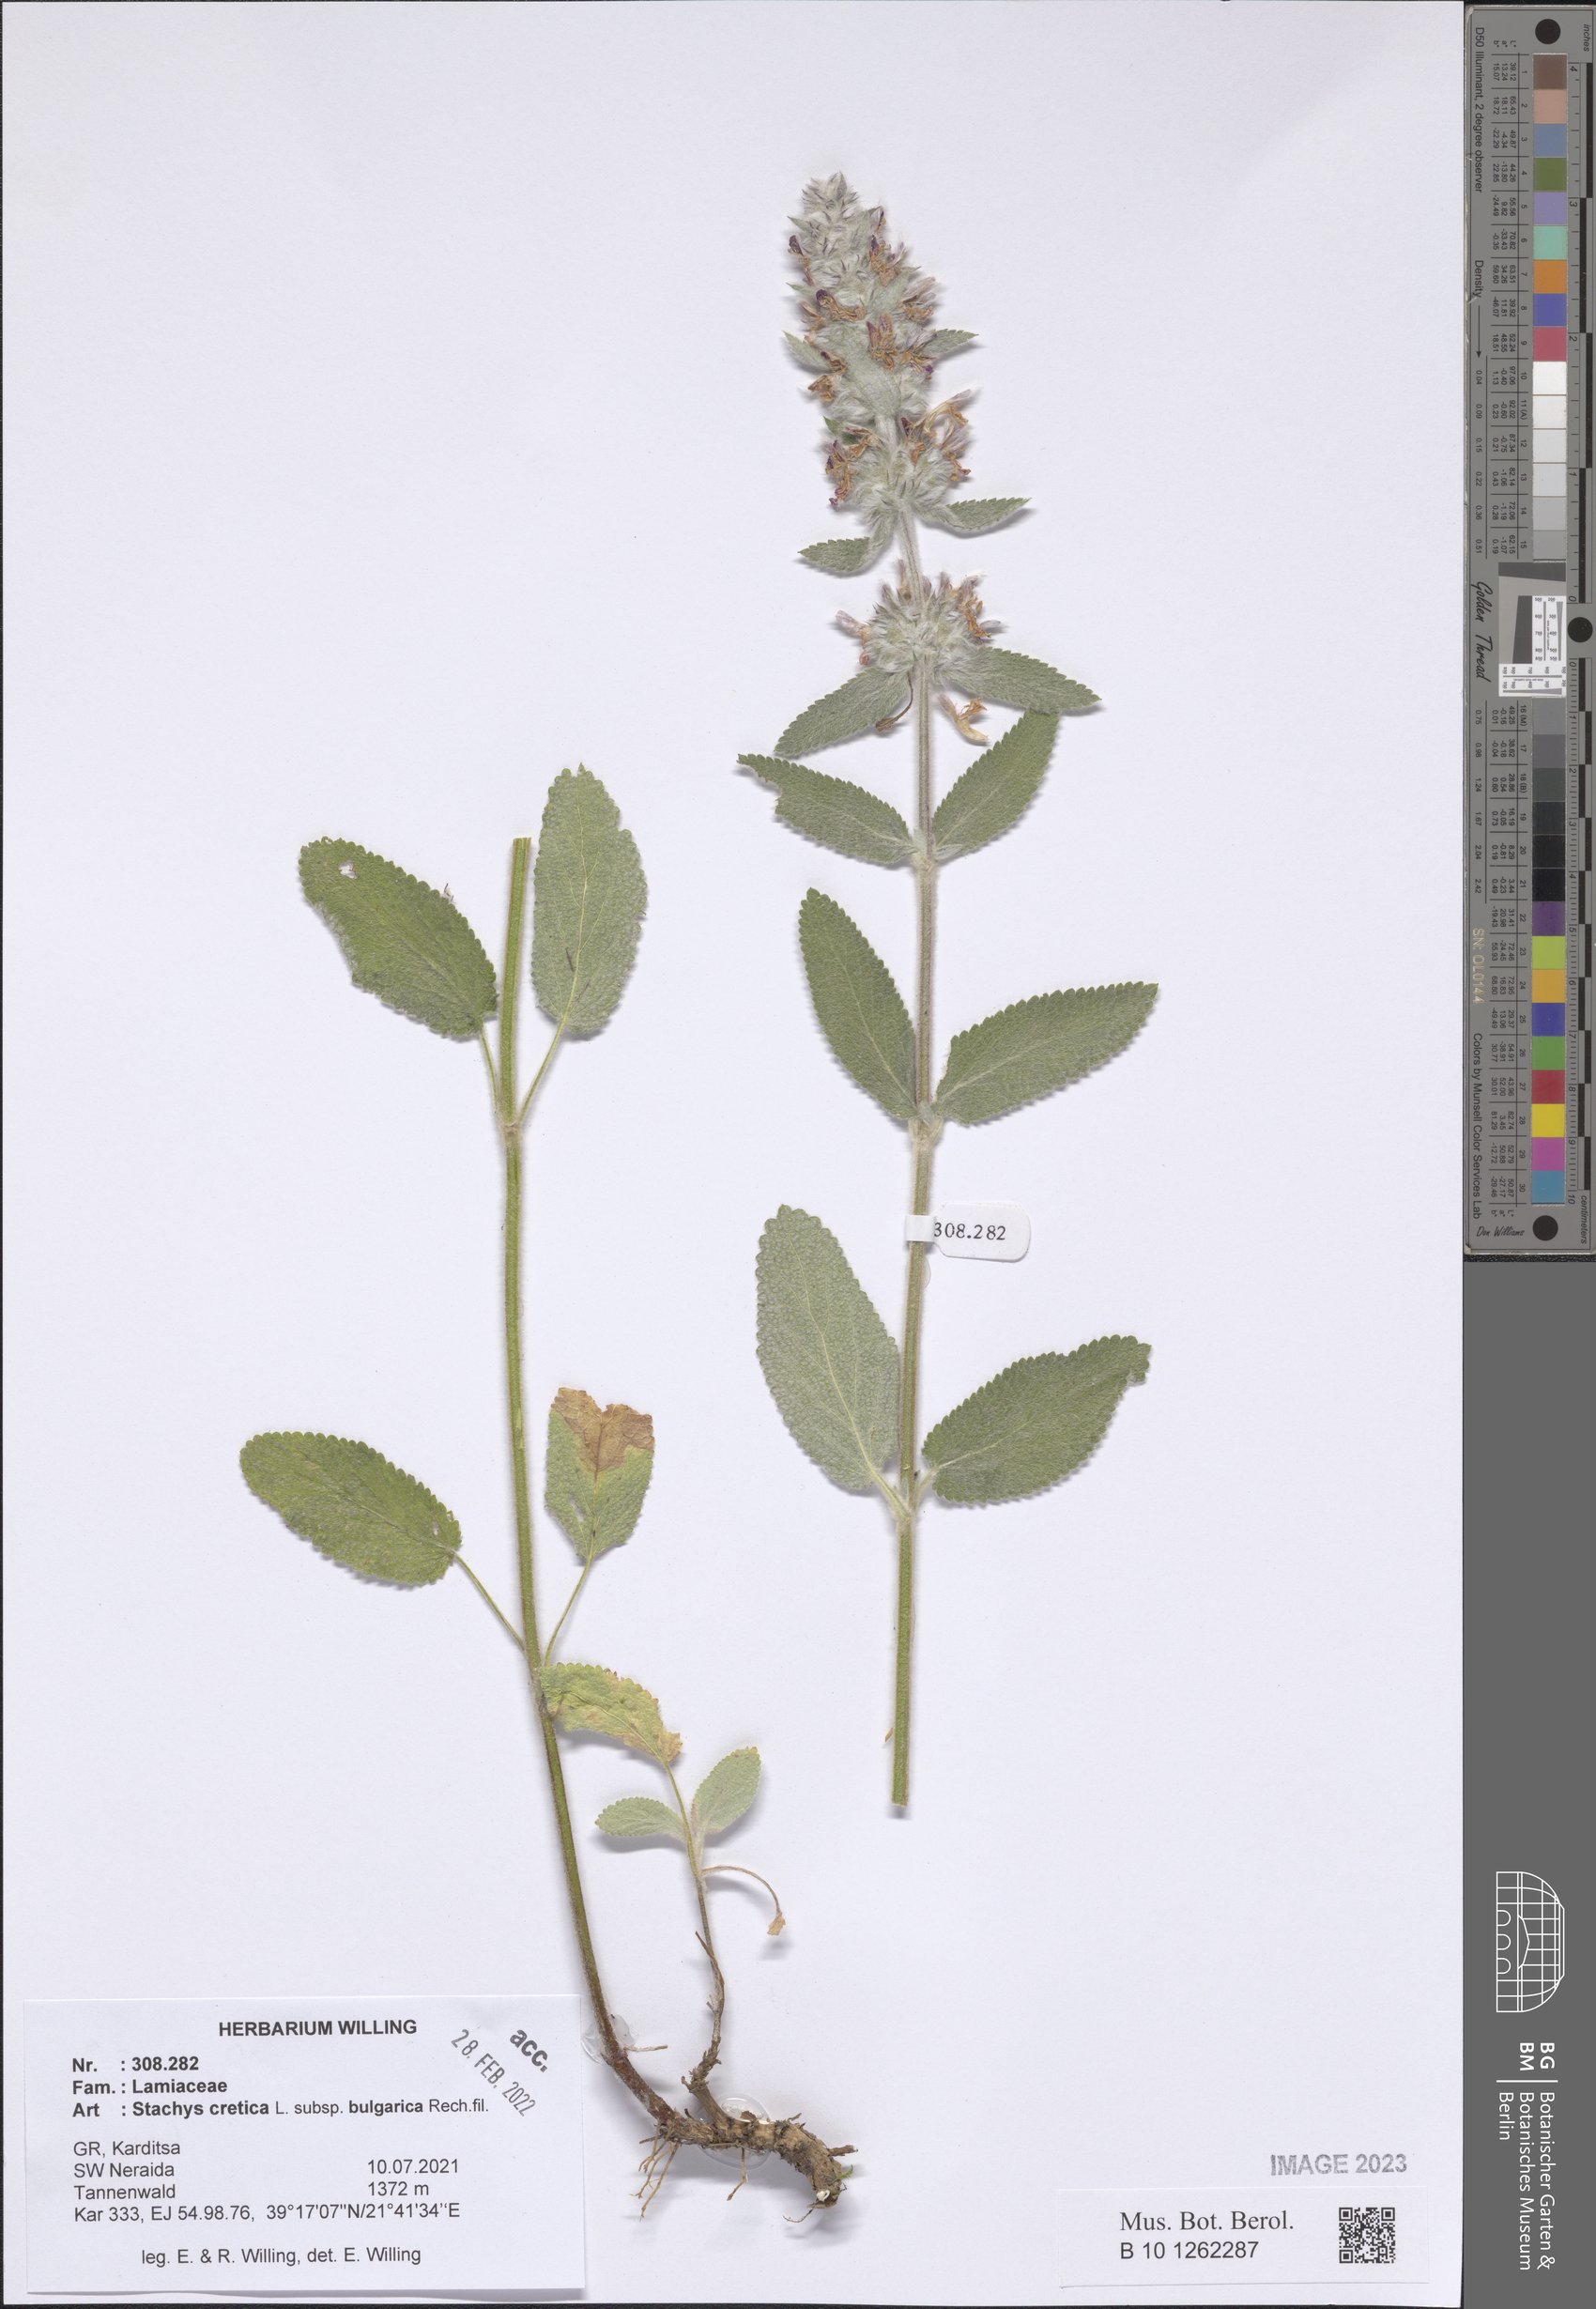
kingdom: Plantae
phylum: Tracheophyta
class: Magnoliopsida
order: Lamiales
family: Lamiaceae
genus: Stachys
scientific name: Stachys cretica
